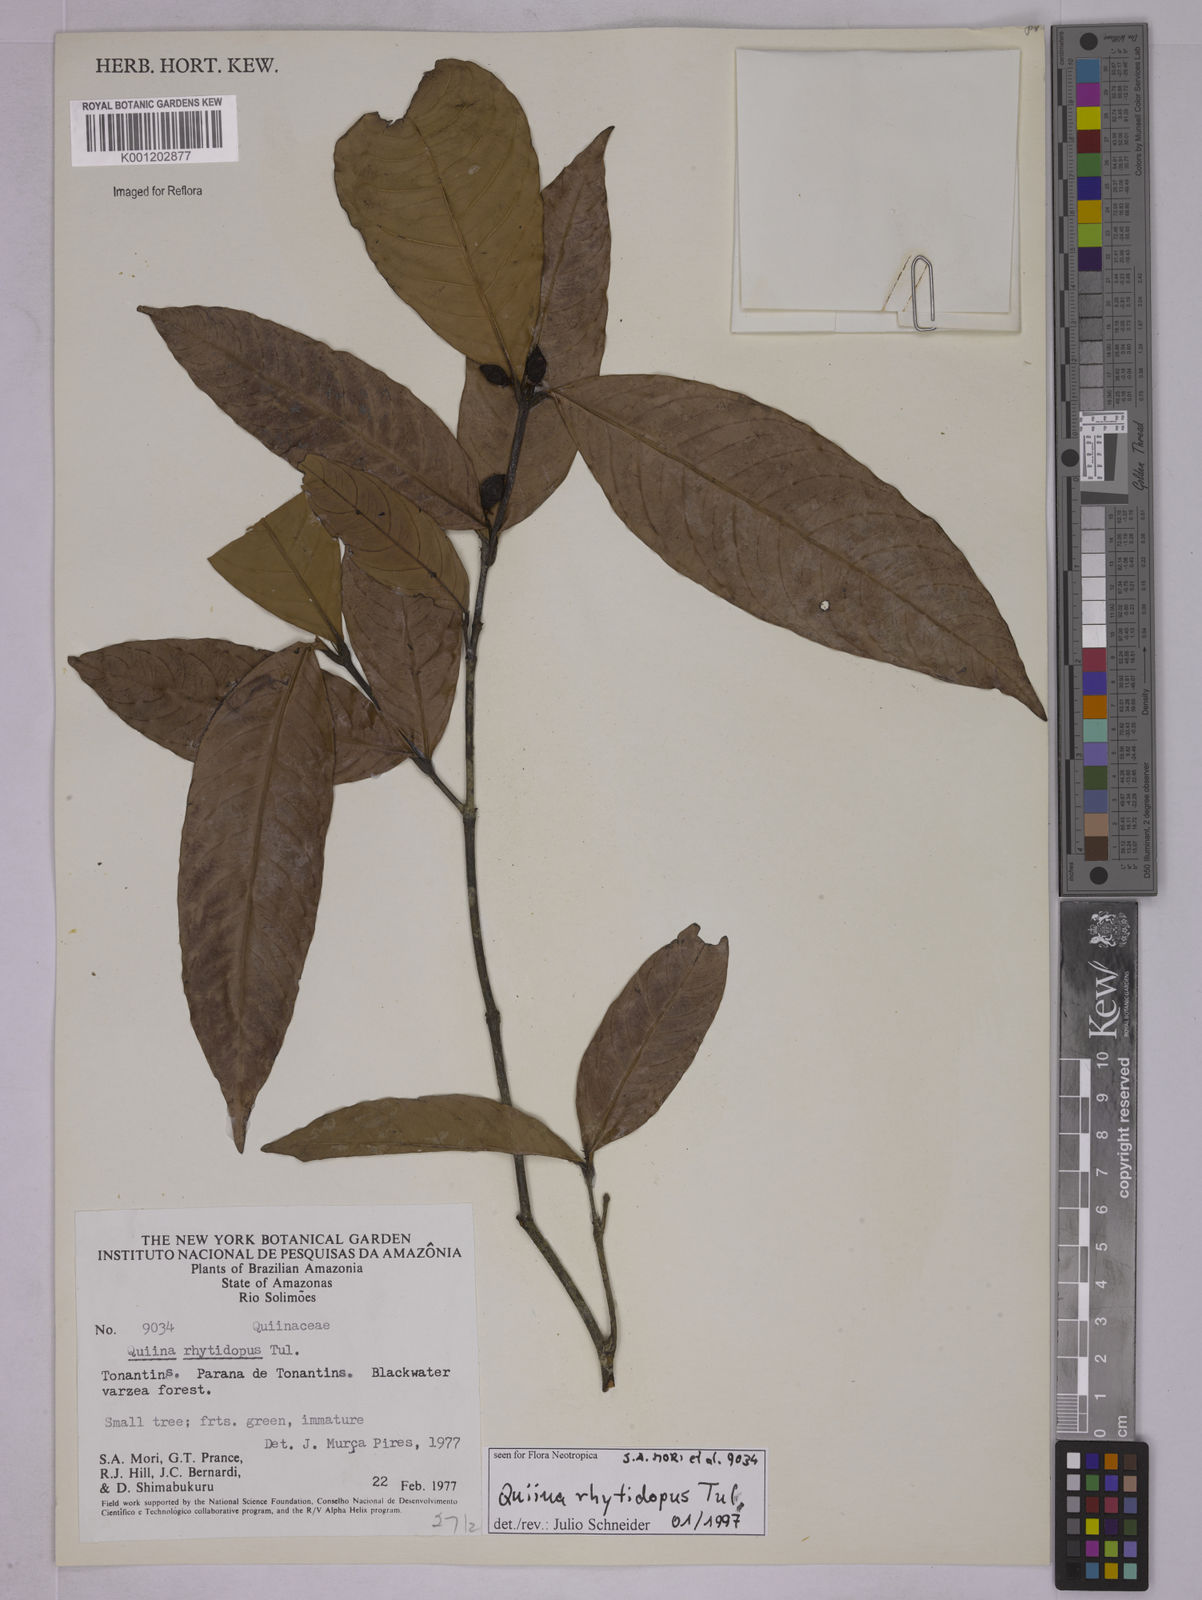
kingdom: Plantae
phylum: Tracheophyta
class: Magnoliopsida
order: Malpighiales
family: Quiinaceae
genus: Quiina
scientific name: Quiina rhytidopus
